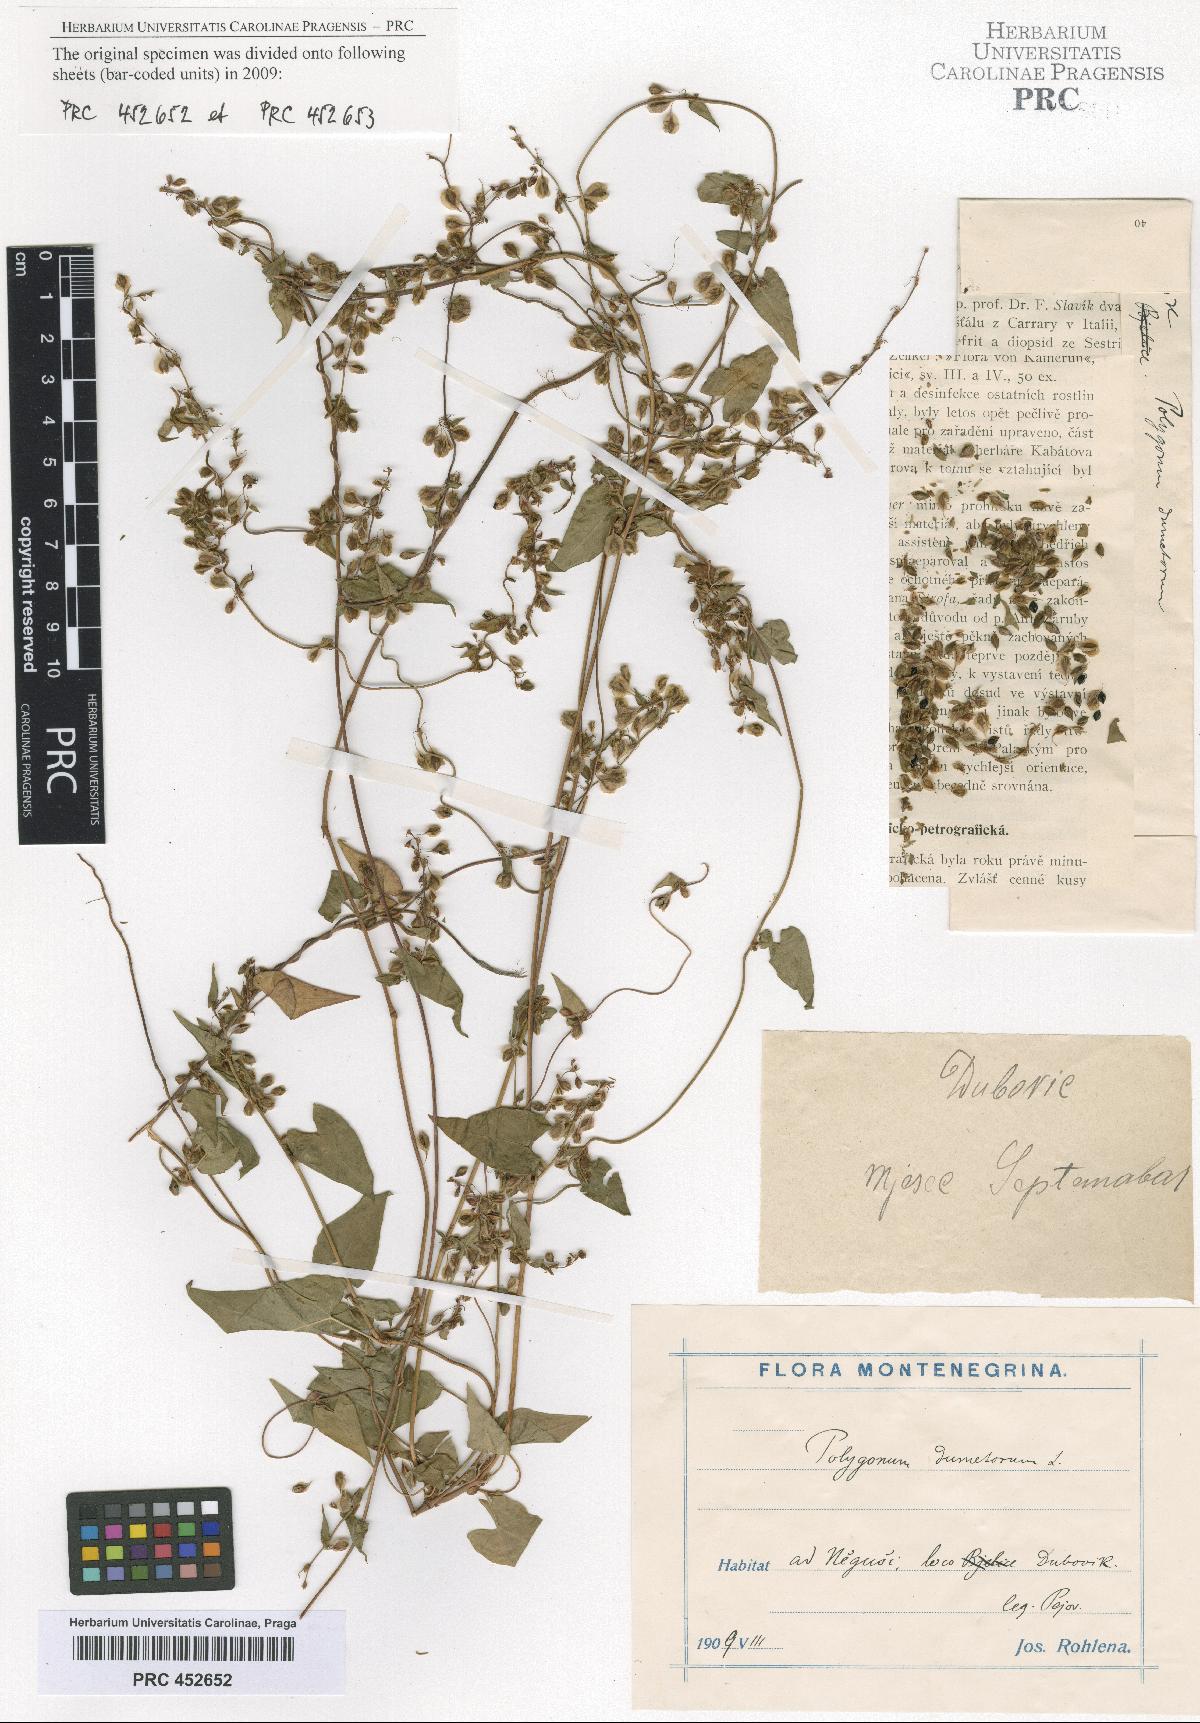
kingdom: Plantae
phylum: Tracheophyta
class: Magnoliopsida
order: Caryophyllales
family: Polygonaceae
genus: Fallopia
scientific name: Fallopia dumetorum
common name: Copse-bindweed
